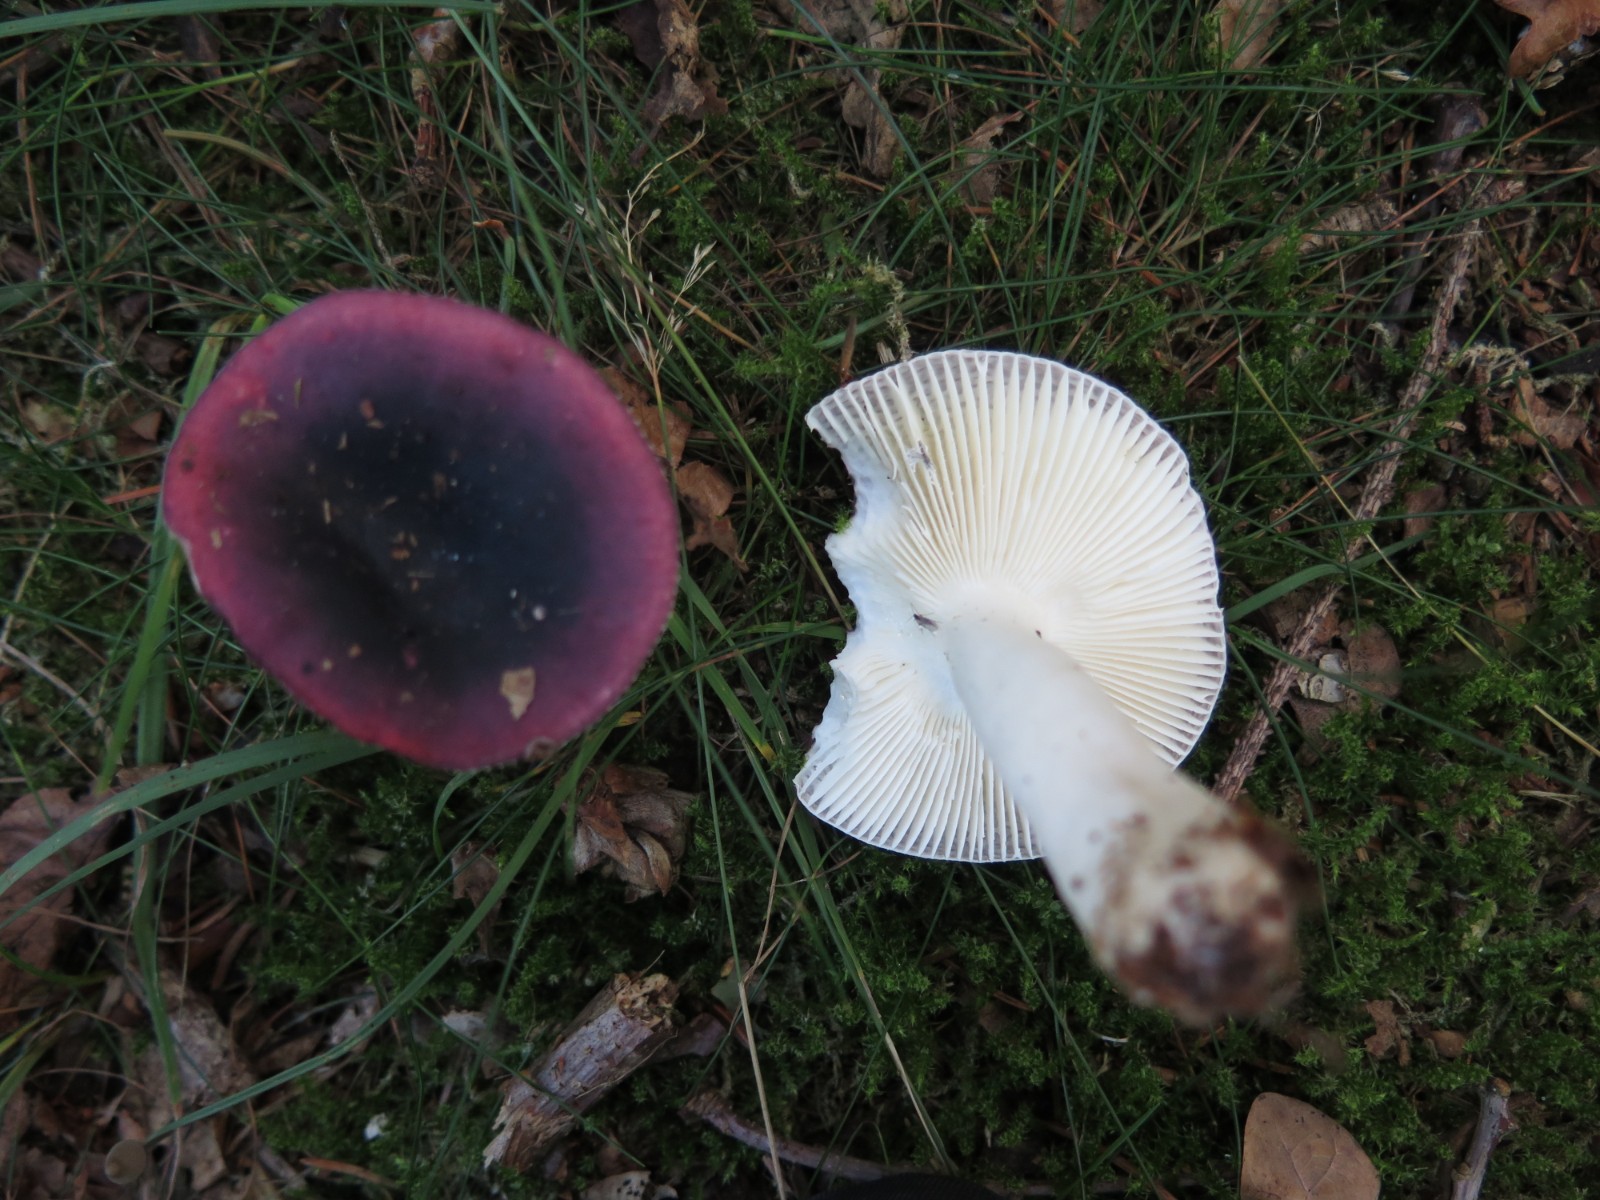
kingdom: Fungi
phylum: Basidiomycota
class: Agaricomycetes
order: Russulales
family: Russulaceae
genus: Russula
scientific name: Russula atropurpurea
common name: purpurbroget skørhat
